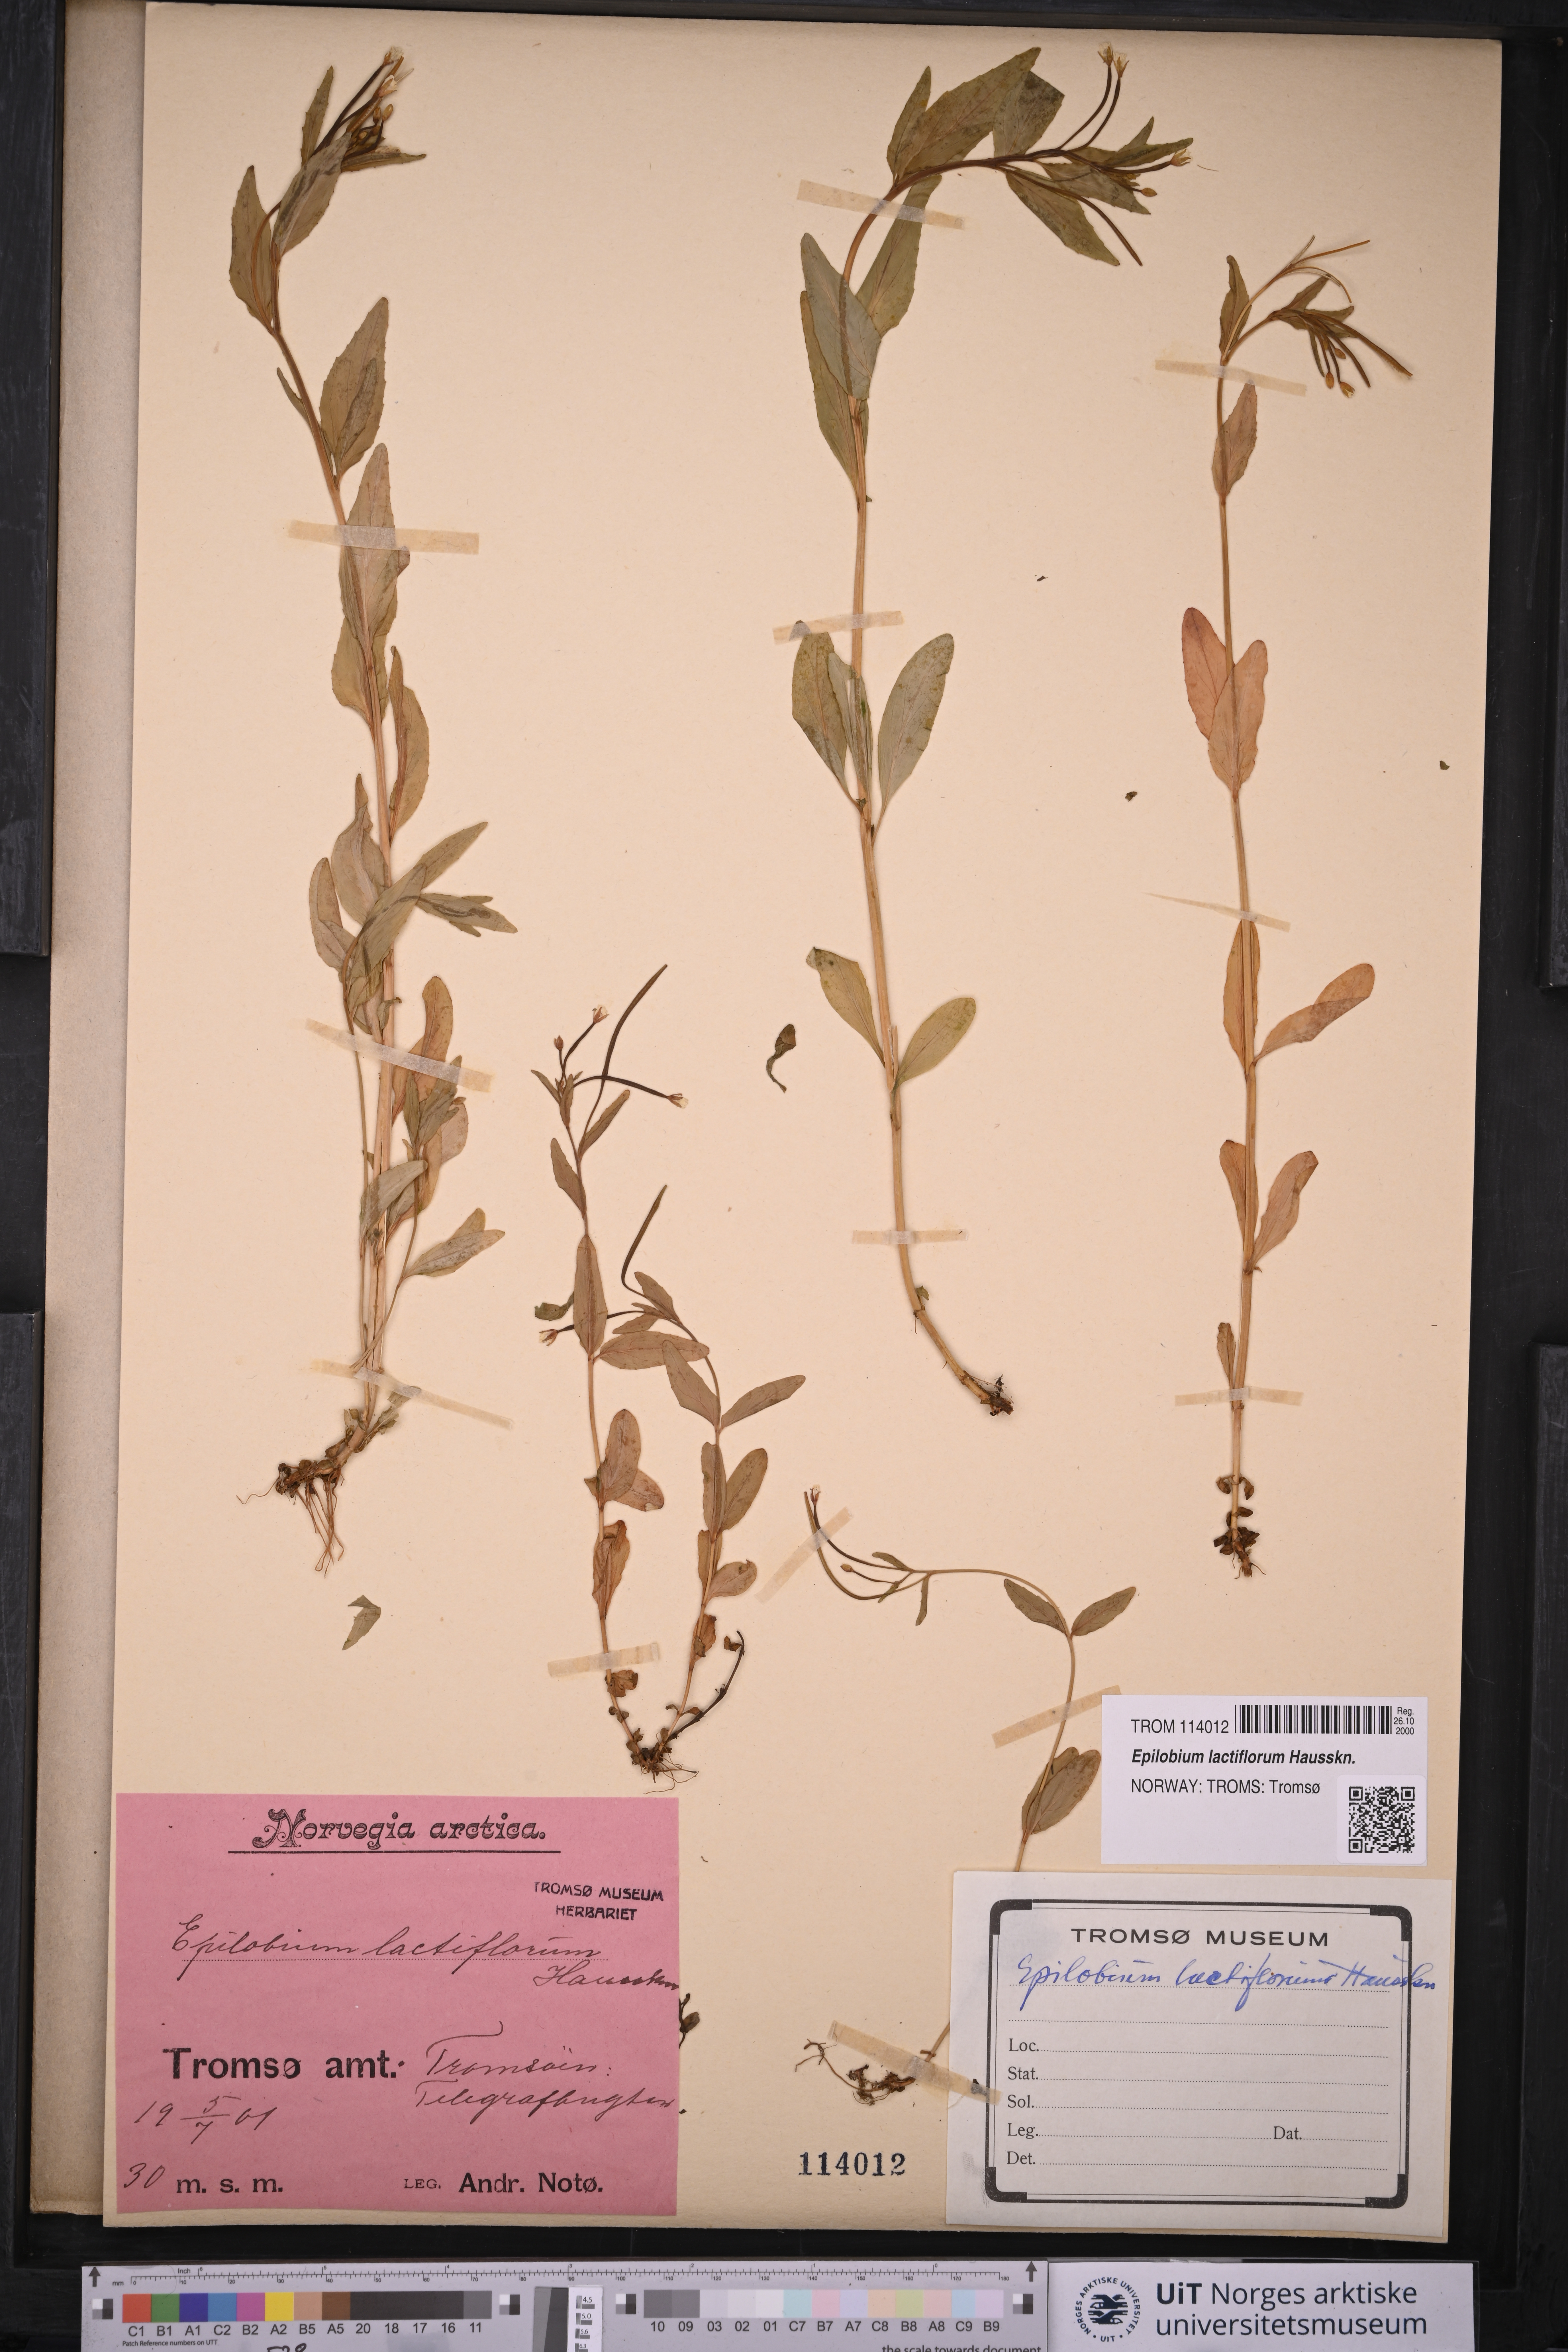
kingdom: Plantae
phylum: Tracheophyta
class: Magnoliopsida
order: Myrtales
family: Onagraceae
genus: Epilobium
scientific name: Epilobium lactiflorum
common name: Milkflower willowherb
